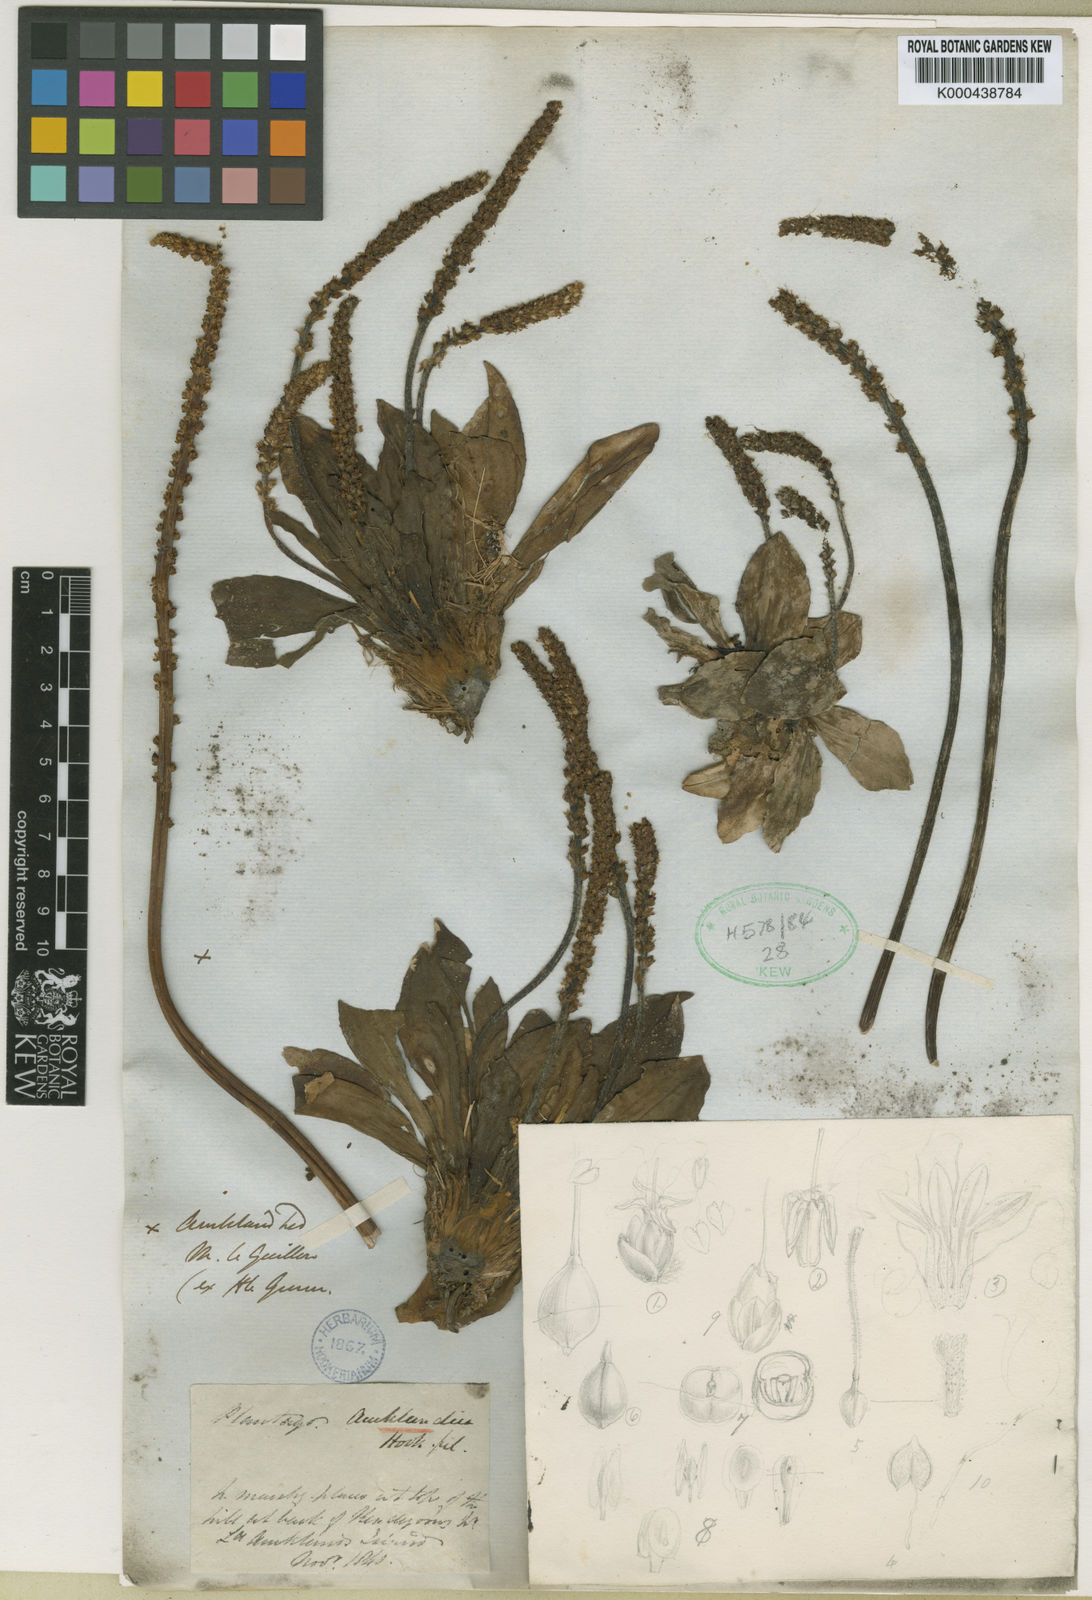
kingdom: Plantae
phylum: Tracheophyta
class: Magnoliopsida
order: Lamiales
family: Plantaginaceae
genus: Plantago
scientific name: Plantago aucklandica
